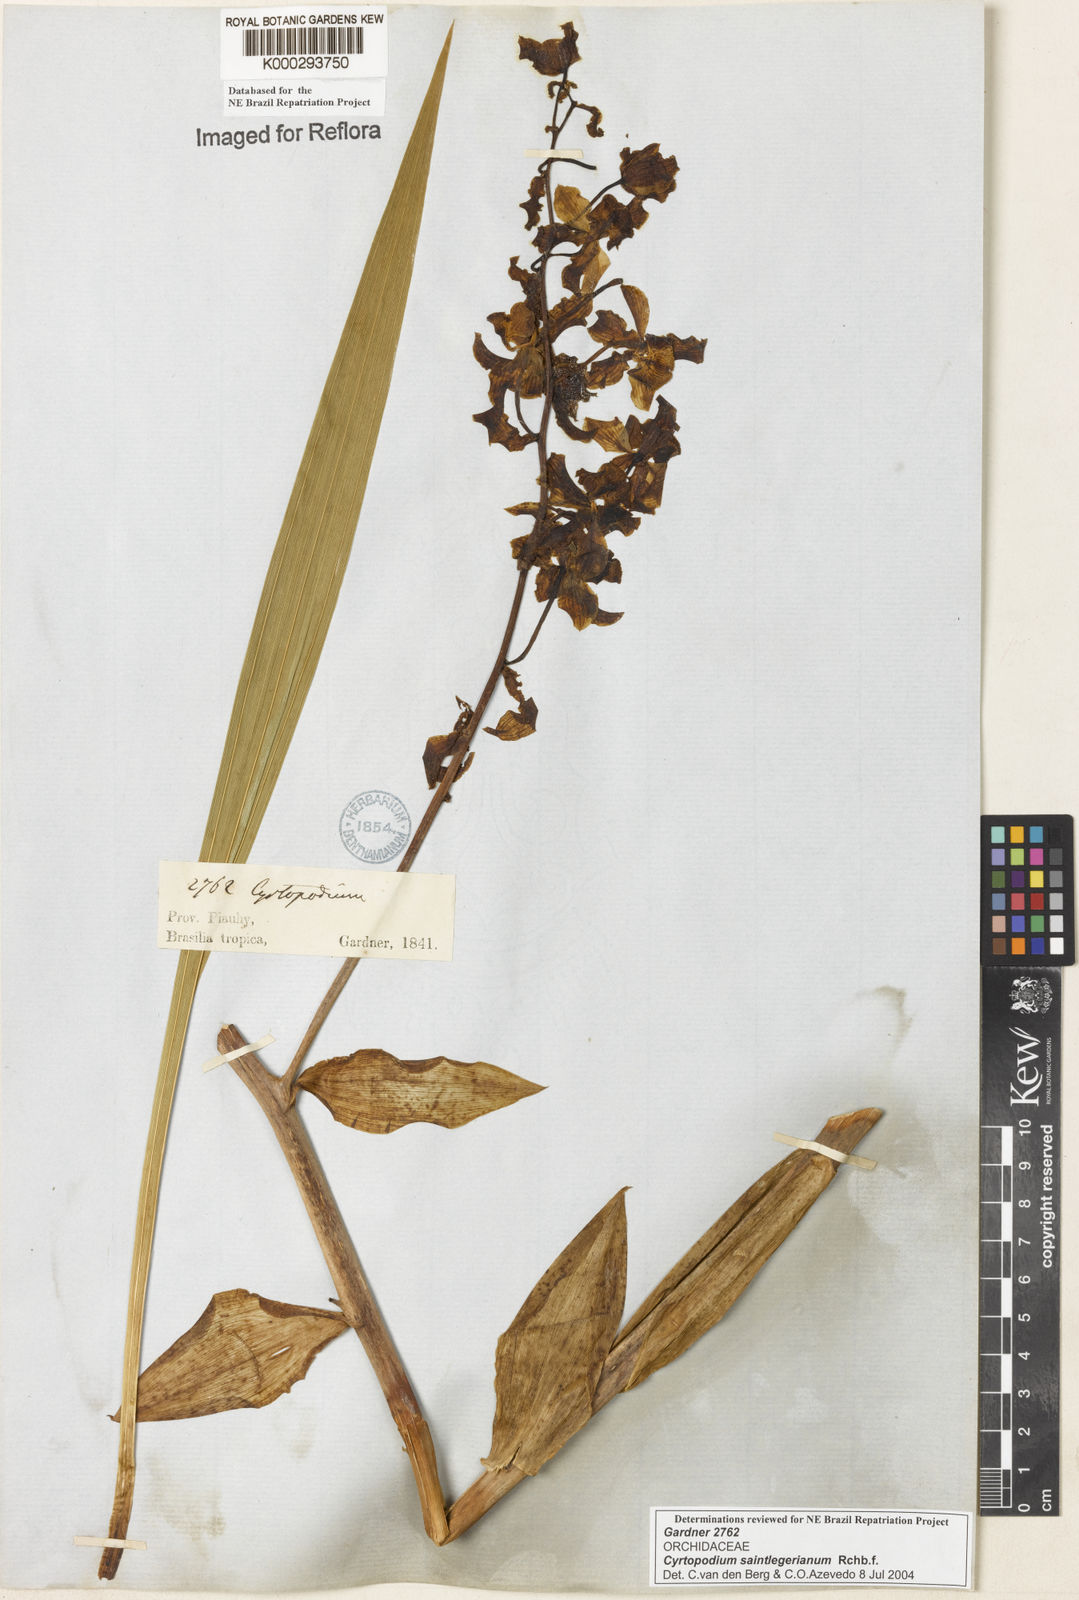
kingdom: Plantae
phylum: Tracheophyta
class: Liliopsida
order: Asparagales
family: Orchidaceae
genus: Cyrtopodium
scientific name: Cyrtopodium saintlegerianum
